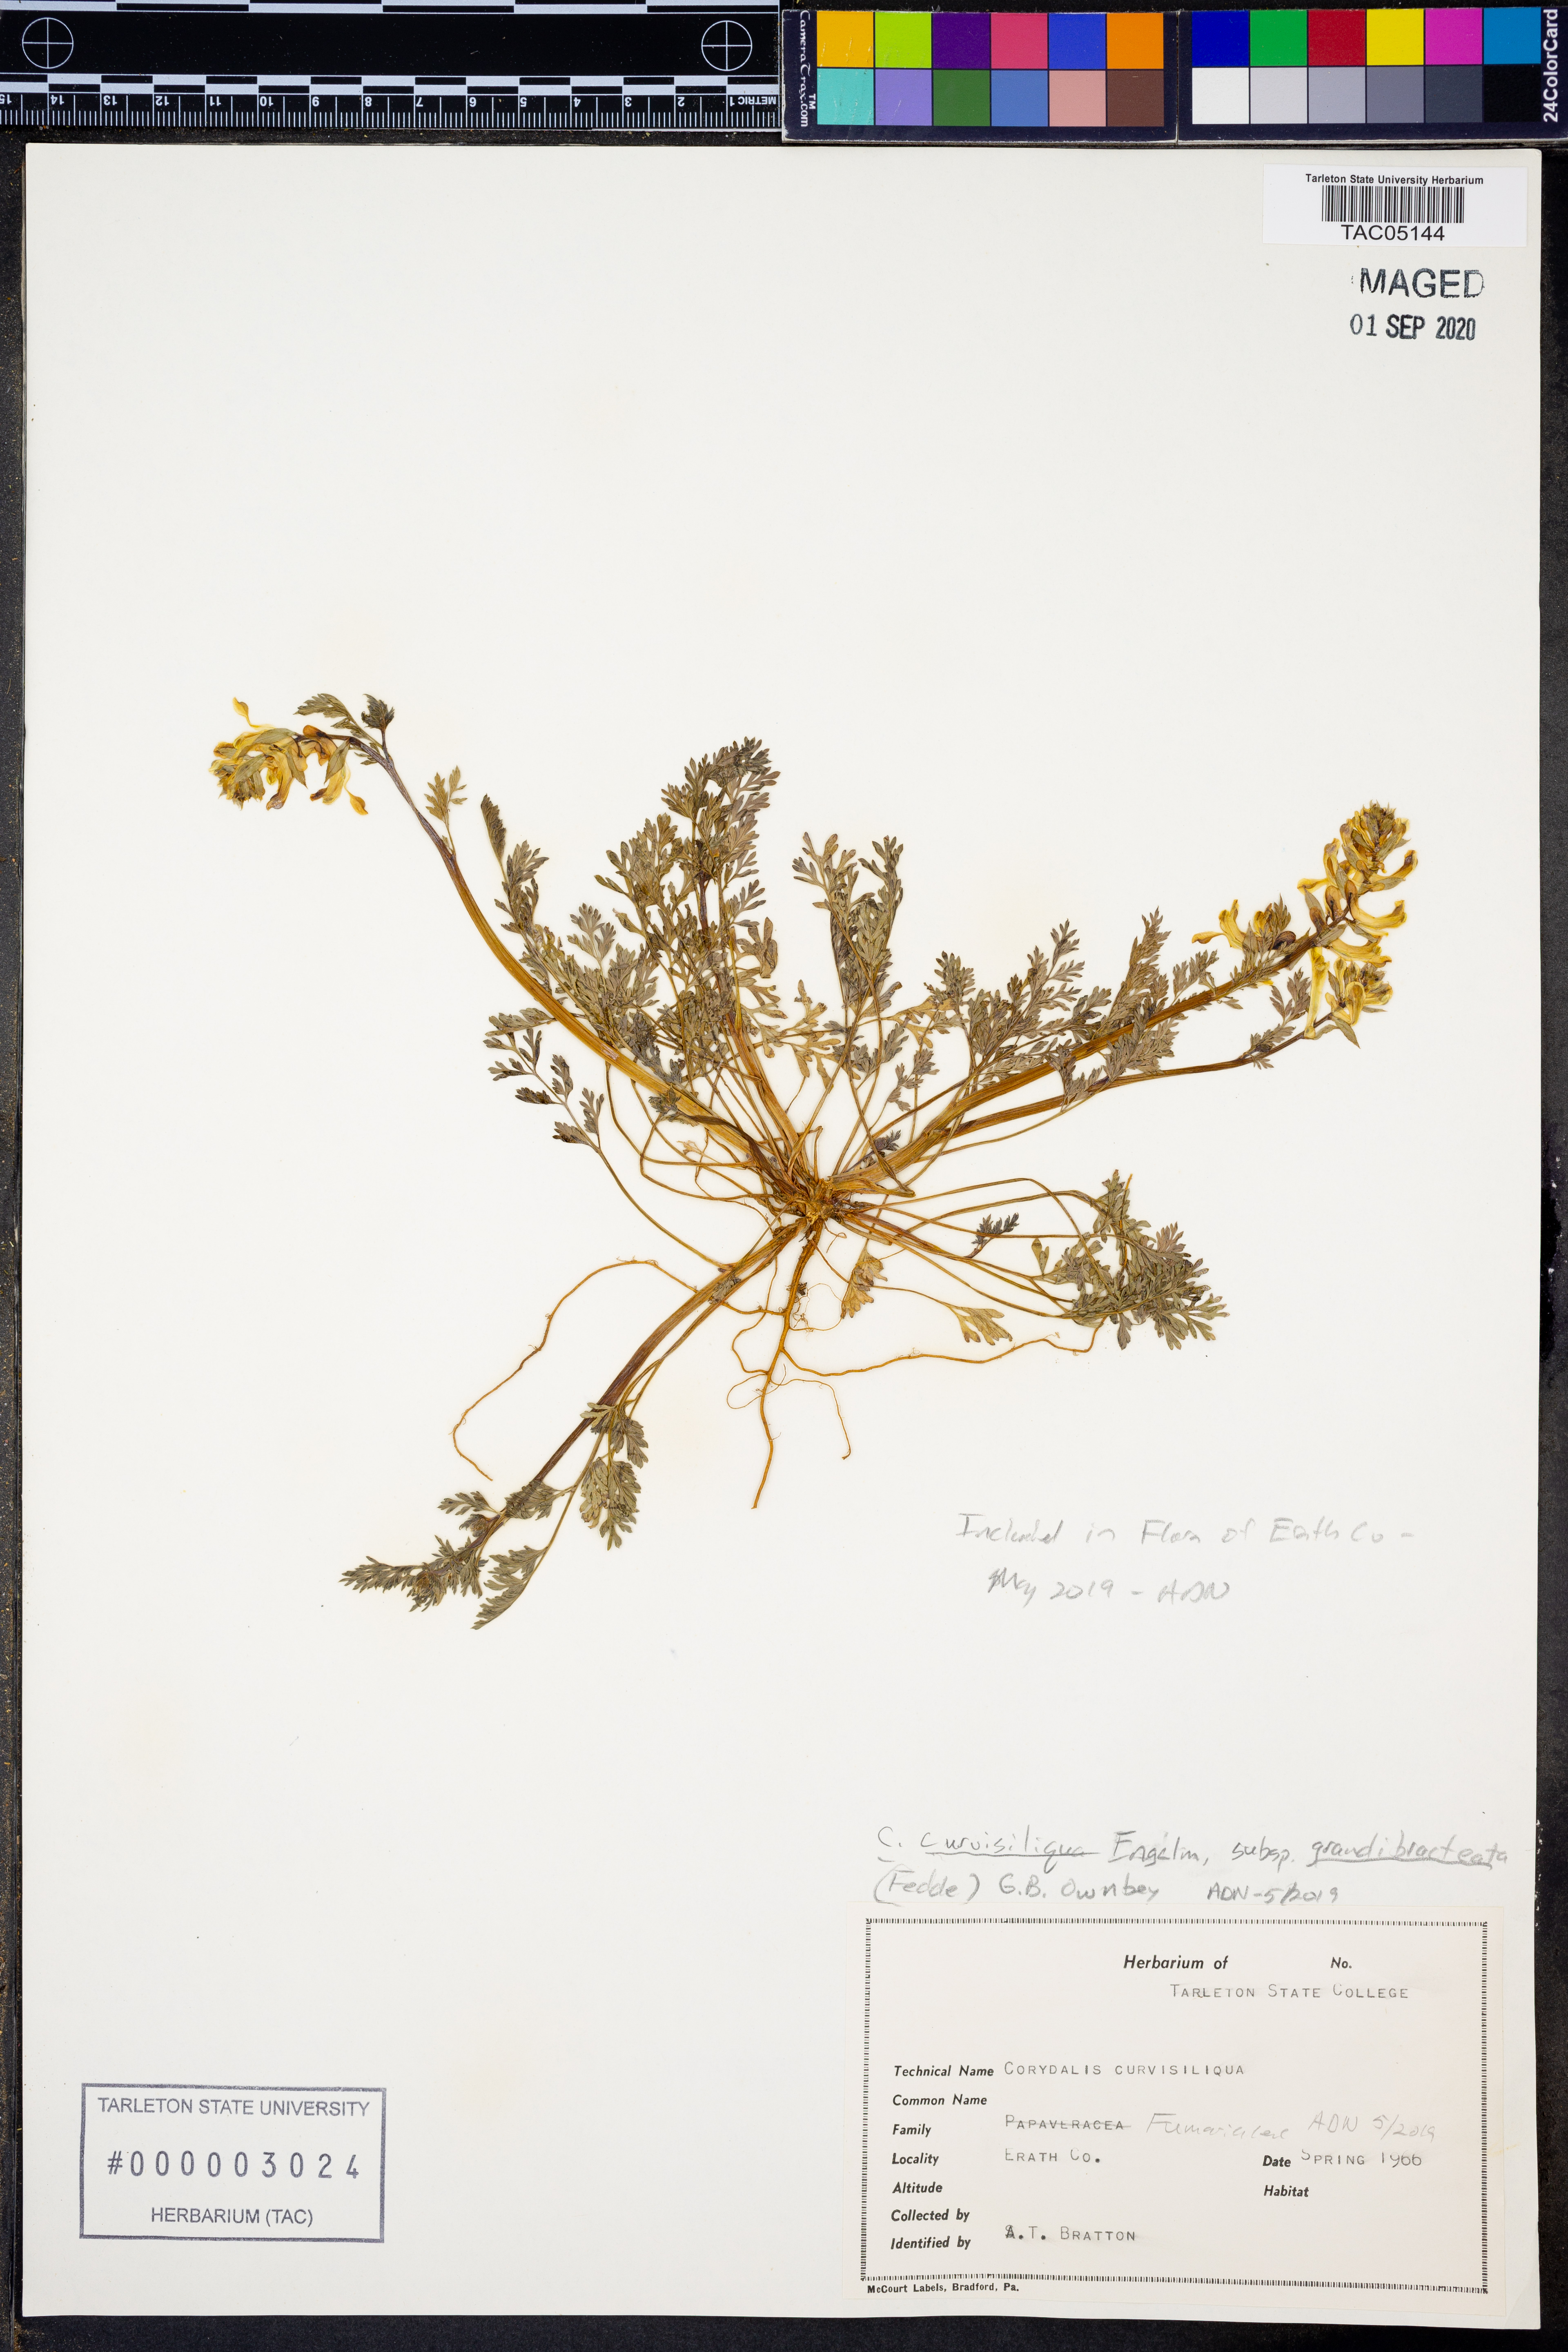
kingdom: Plantae
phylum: Tracheophyta
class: Magnoliopsida
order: Ranunculales
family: Papaveraceae
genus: Corydalis
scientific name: Corydalis curvisiliqua
